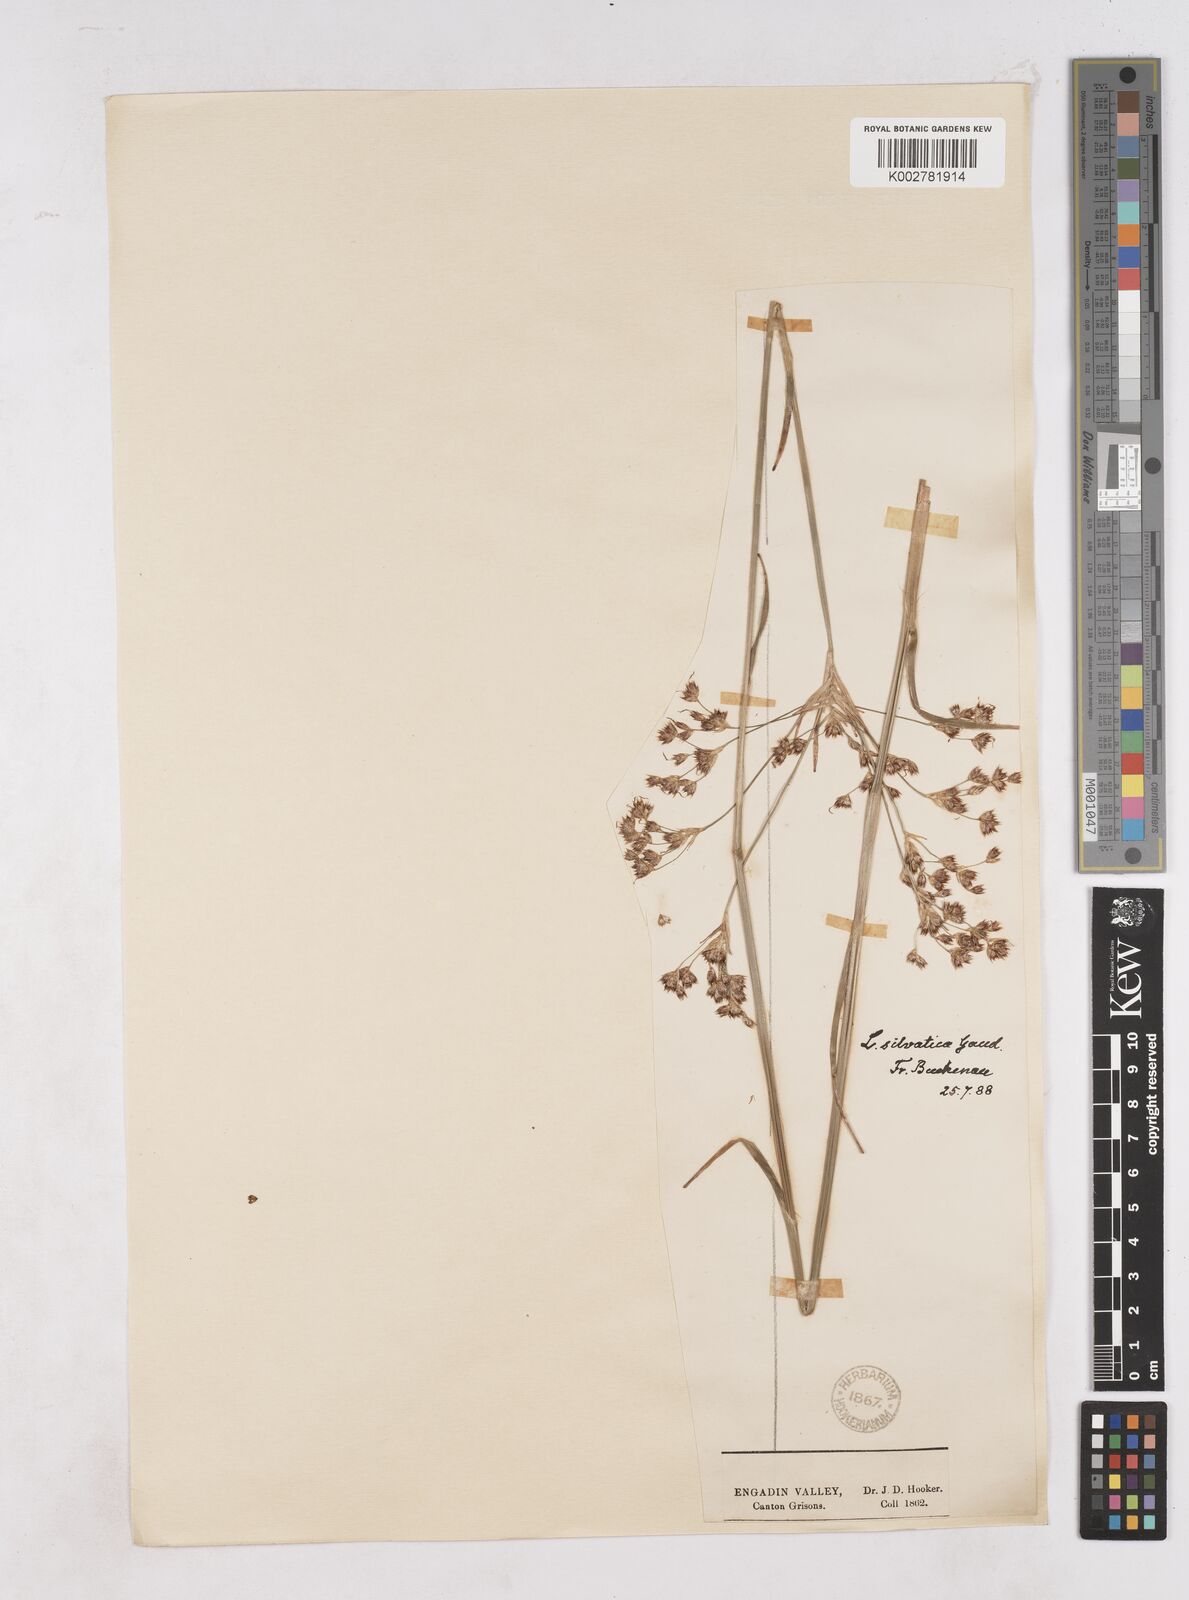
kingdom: Plantae
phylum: Tracheophyta
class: Liliopsida
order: Poales
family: Juncaceae
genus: Luzula
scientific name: Luzula sylvatica
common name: Great wood-rush
